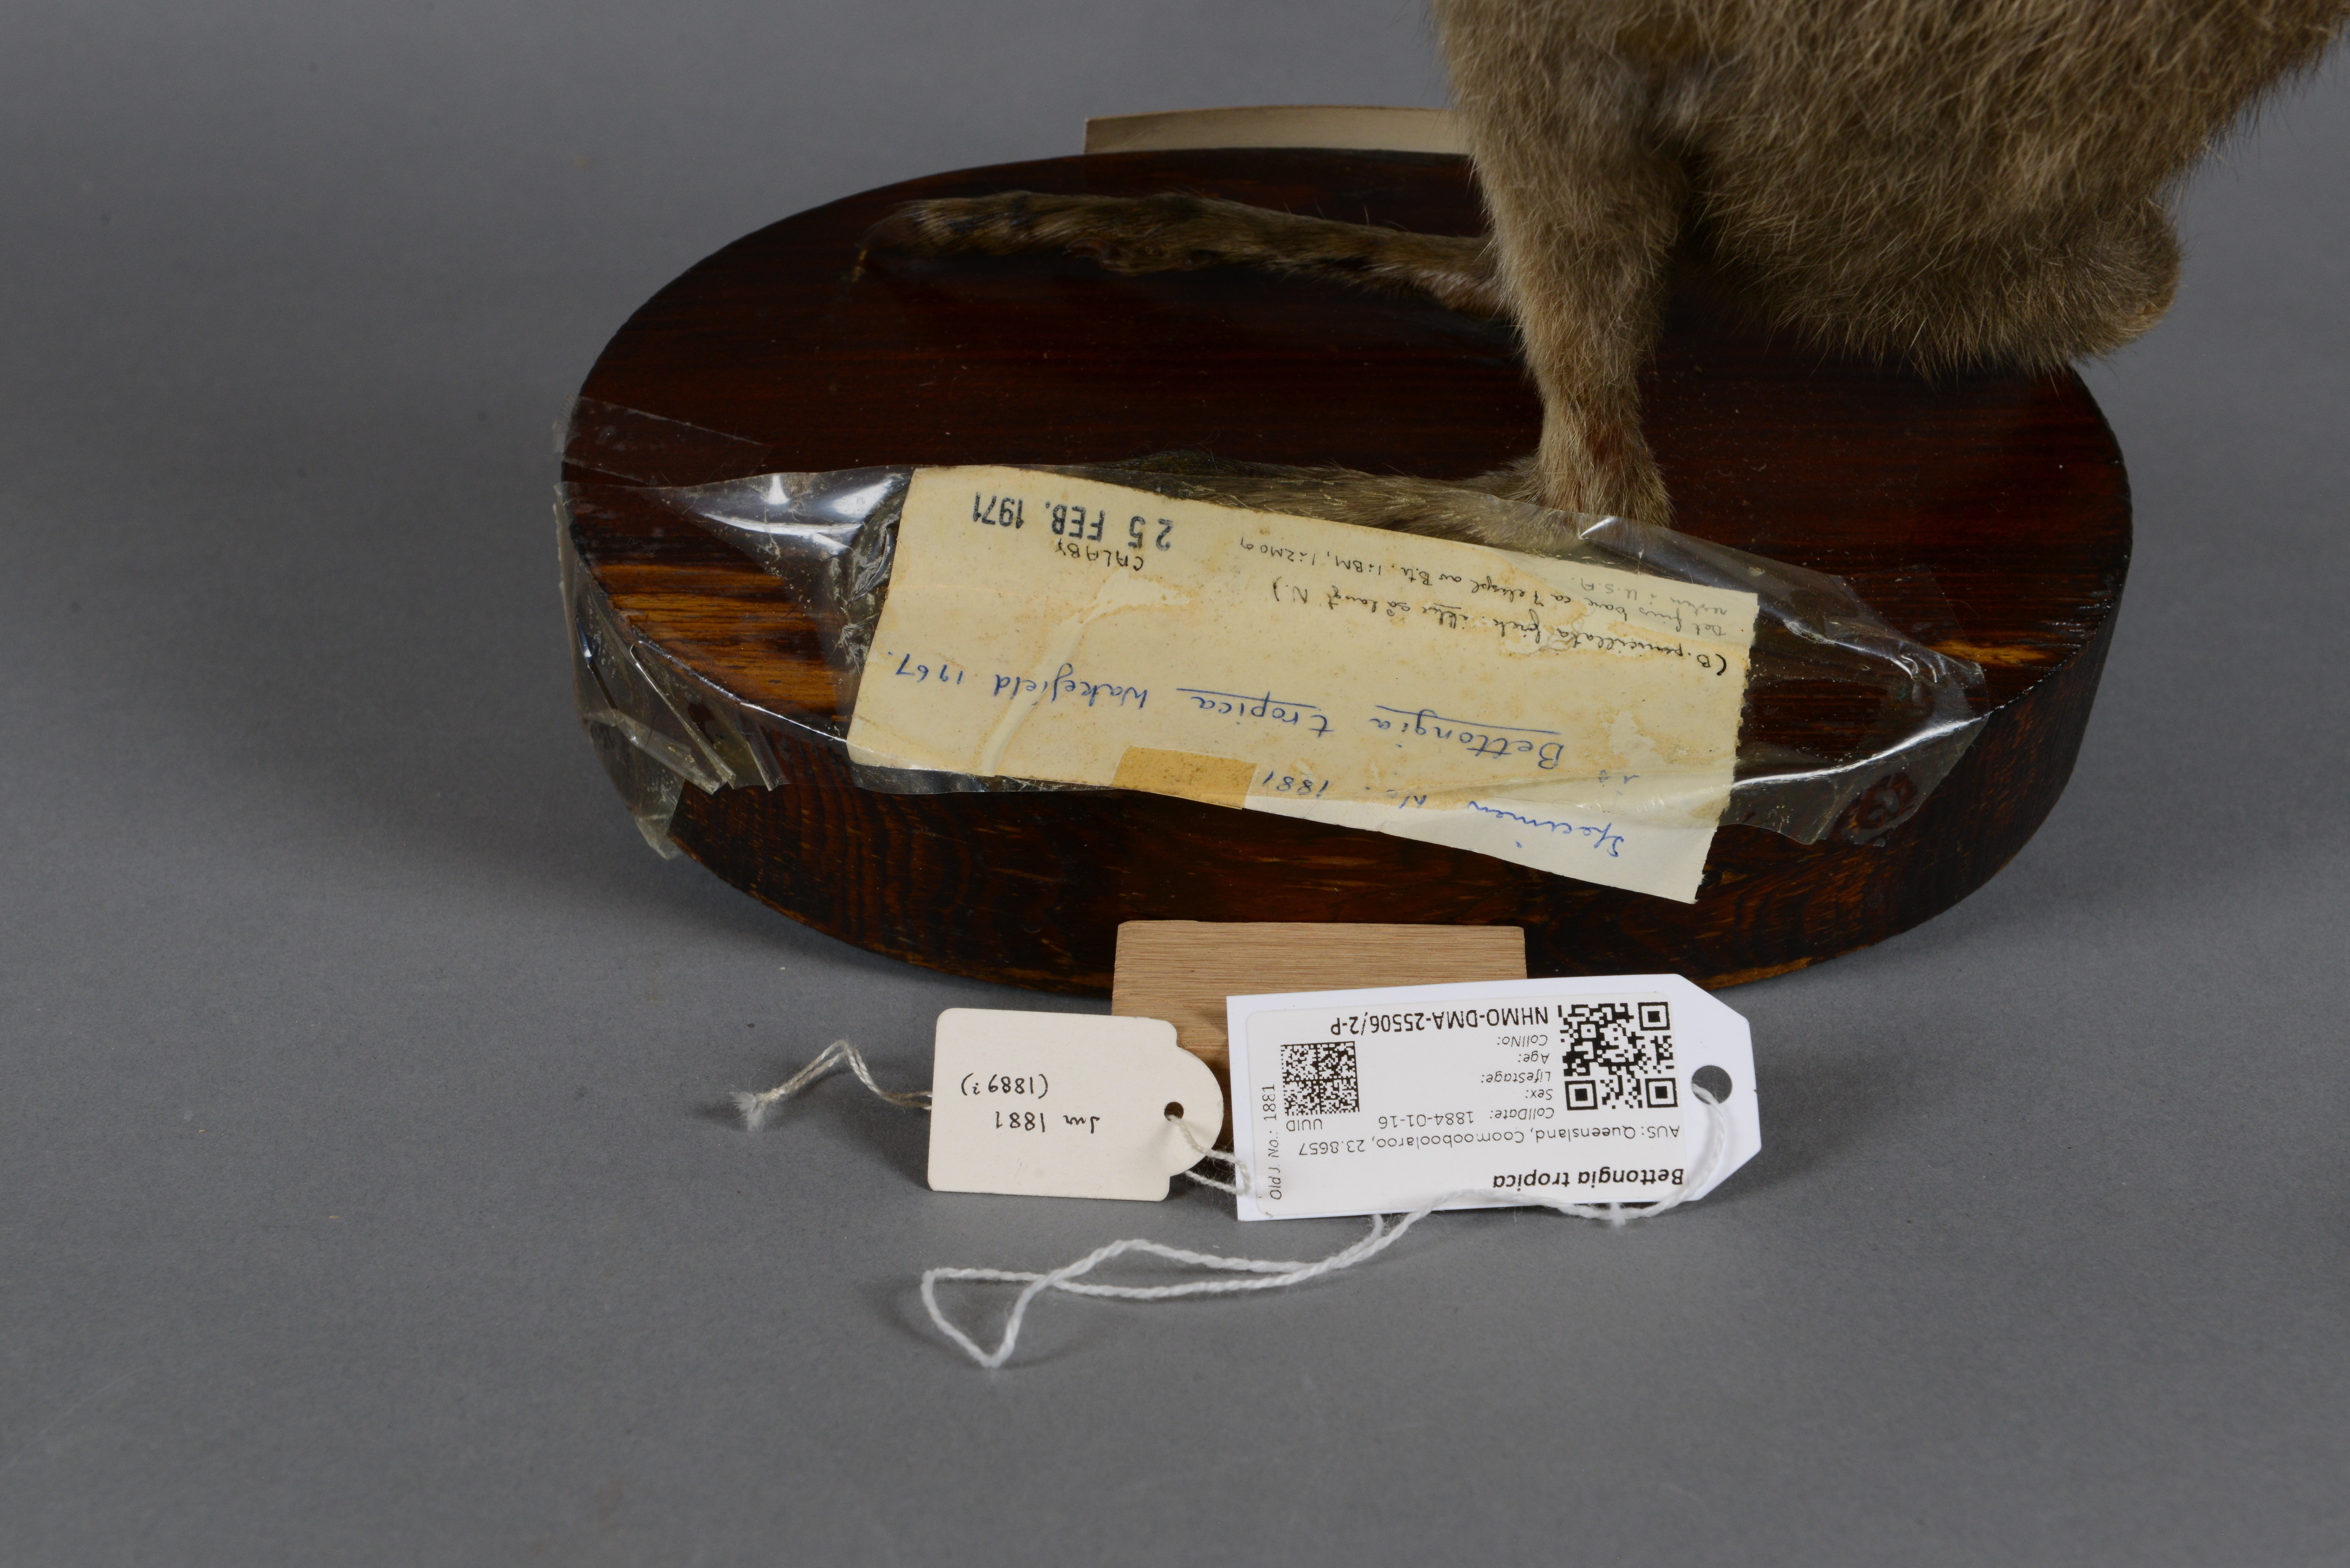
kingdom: Animalia
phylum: Chordata
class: Mammalia
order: Diprotodontia
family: Potoroidae
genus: Bettongia
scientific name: Bettongia tropica
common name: Northern bettong
